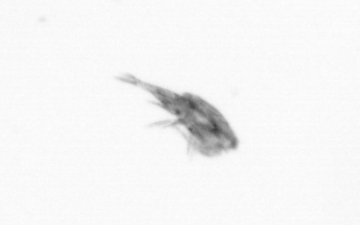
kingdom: Animalia
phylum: Arthropoda
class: Copepoda
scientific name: Copepoda
